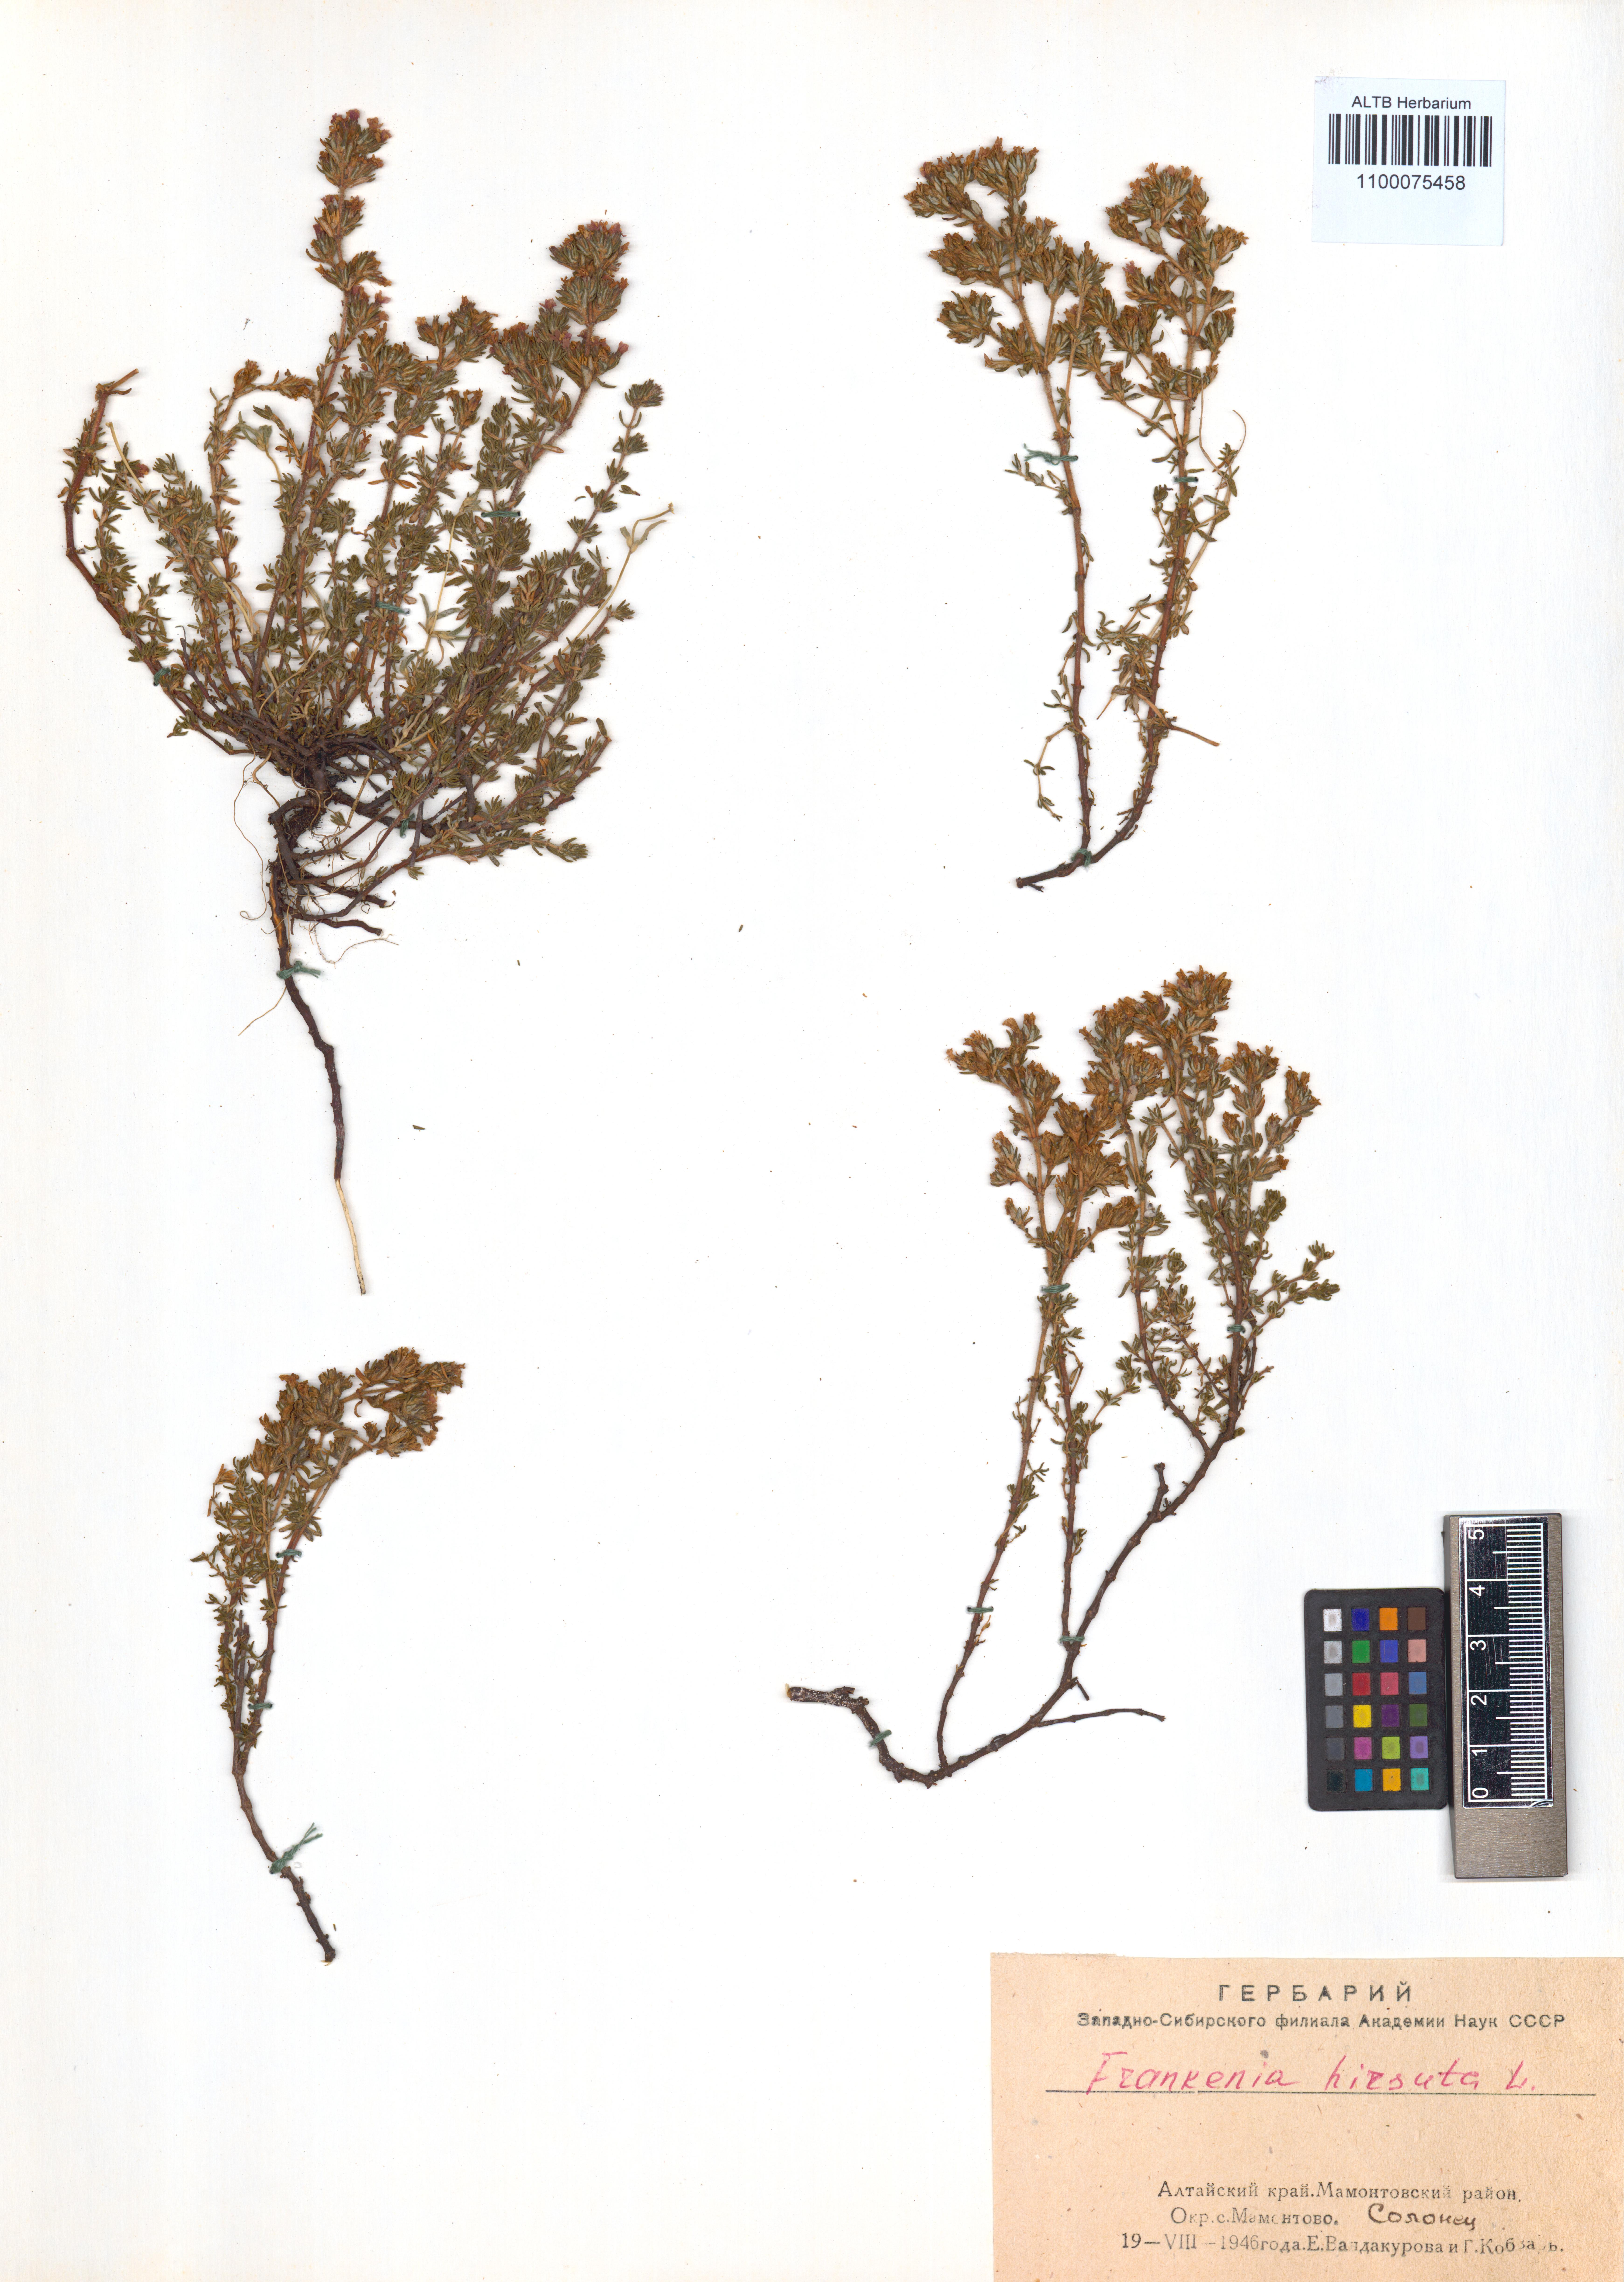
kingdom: Plantae
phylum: Tracheophyta
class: Magnoliopsida
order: Caryophyllales
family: Frankeniaceae
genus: Frankenia
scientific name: Frankenia hirsuta
